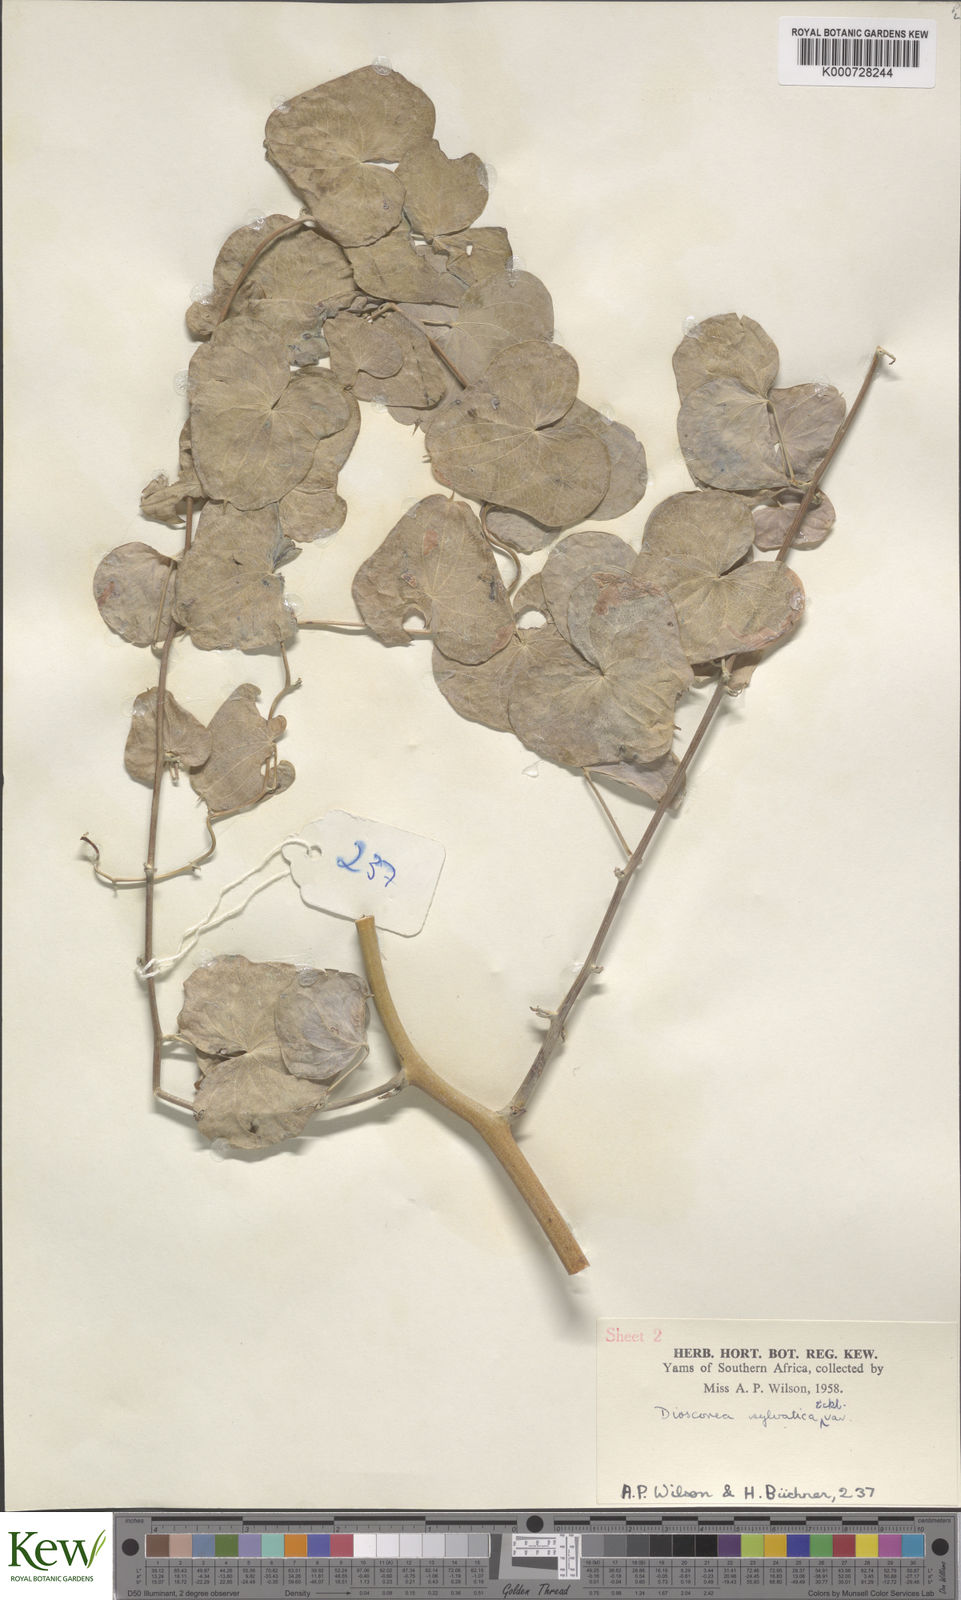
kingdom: Plantae
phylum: Tracheophyta
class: Liliopsida
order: Dioscoreales
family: Dioscoreaceae
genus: Dioscorea
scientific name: Dioscorea sylvatica
